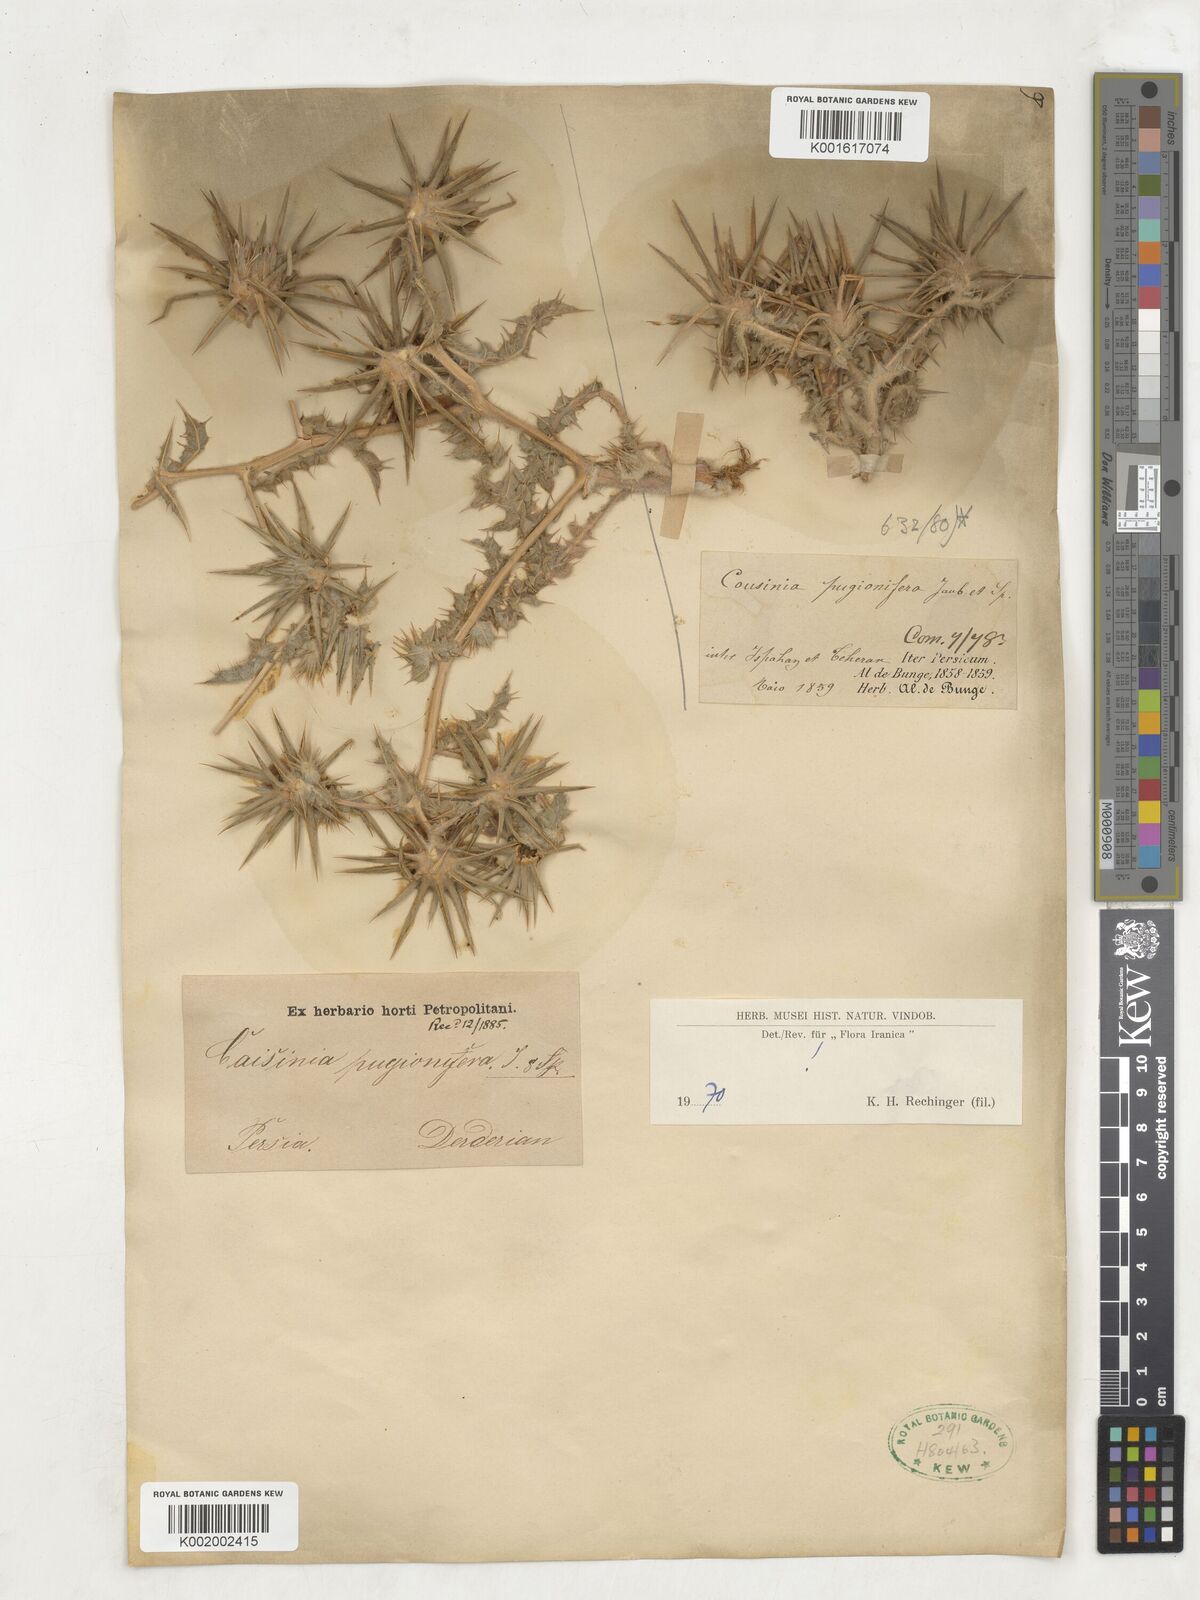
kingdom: Plantae
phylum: Tracheophyta
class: Magnoliopsida
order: Asterales
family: Asteraceae
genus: Cousinia
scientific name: Cousinia pugionifera
